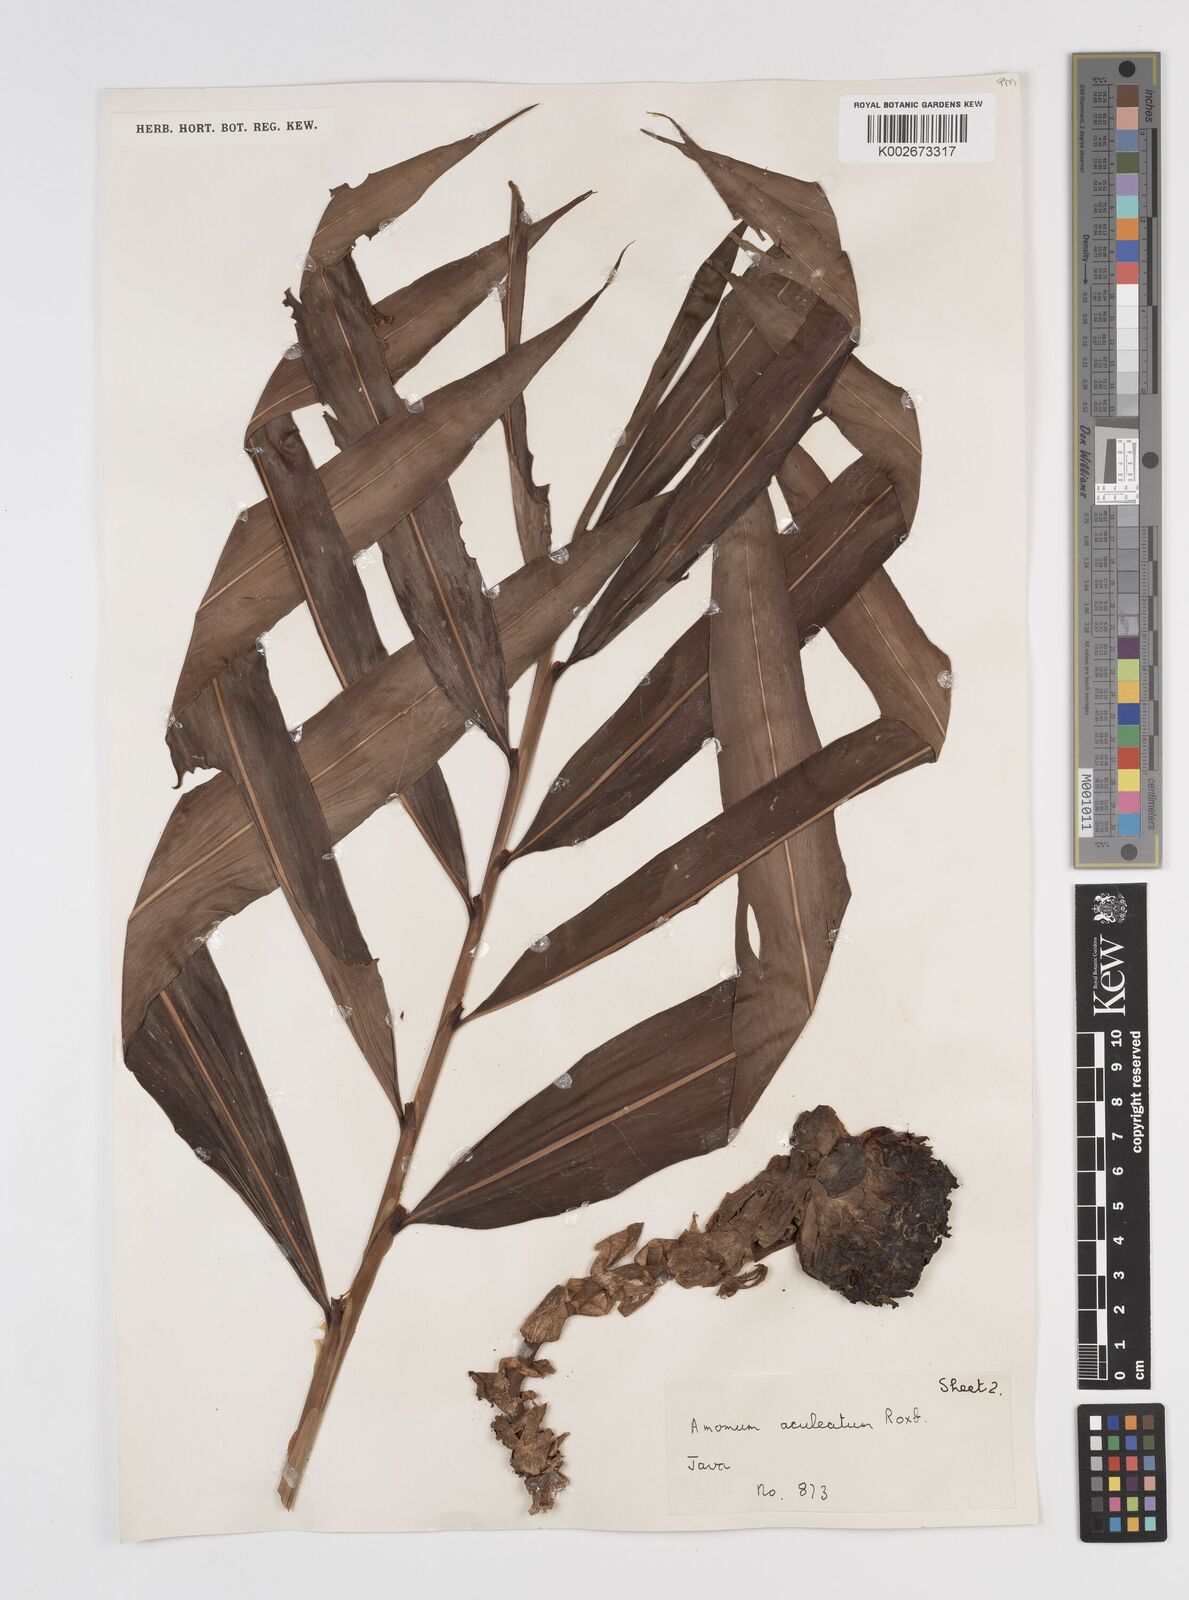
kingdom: Plantae
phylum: Tracheophyta
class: Liliopsida
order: Zingiberales
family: Zingiberaceae
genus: Meistera
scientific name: Meistera aculeata
